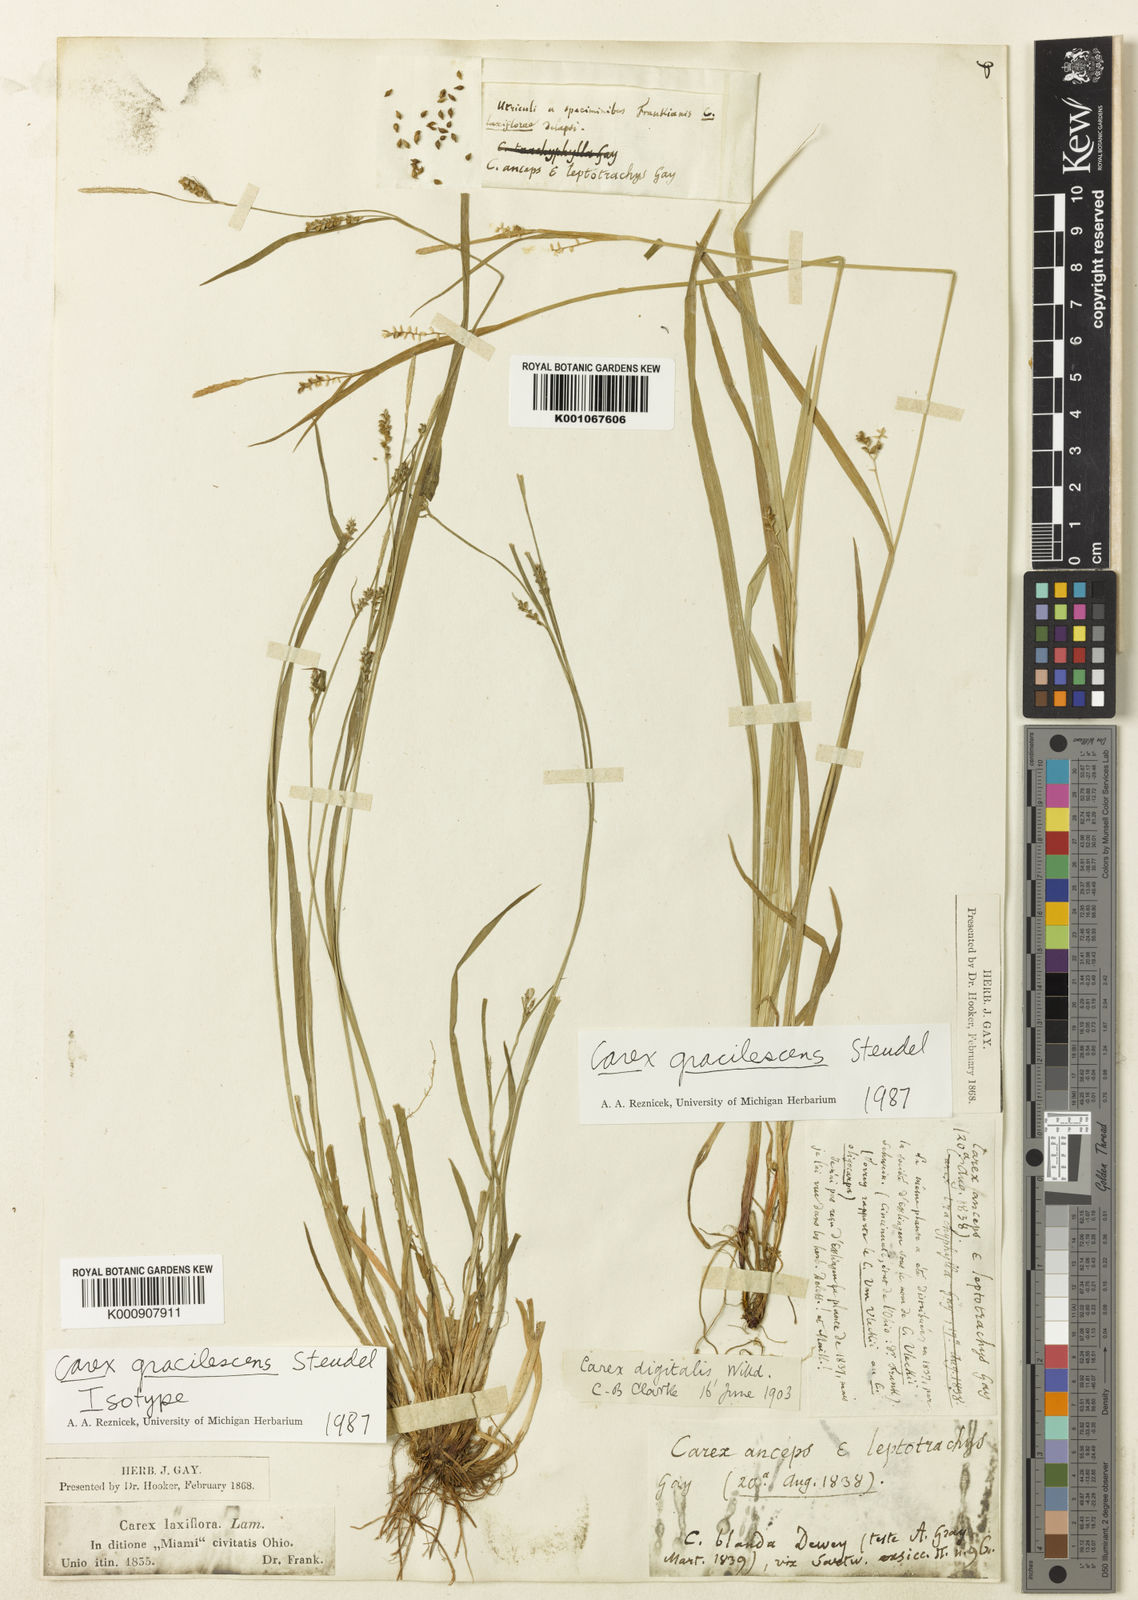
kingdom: Plantae
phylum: Tracheophyta
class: Liliopsida
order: Poales
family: Cyperaceae
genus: Carex
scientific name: Carex laxiflora
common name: Beech wood sedge
